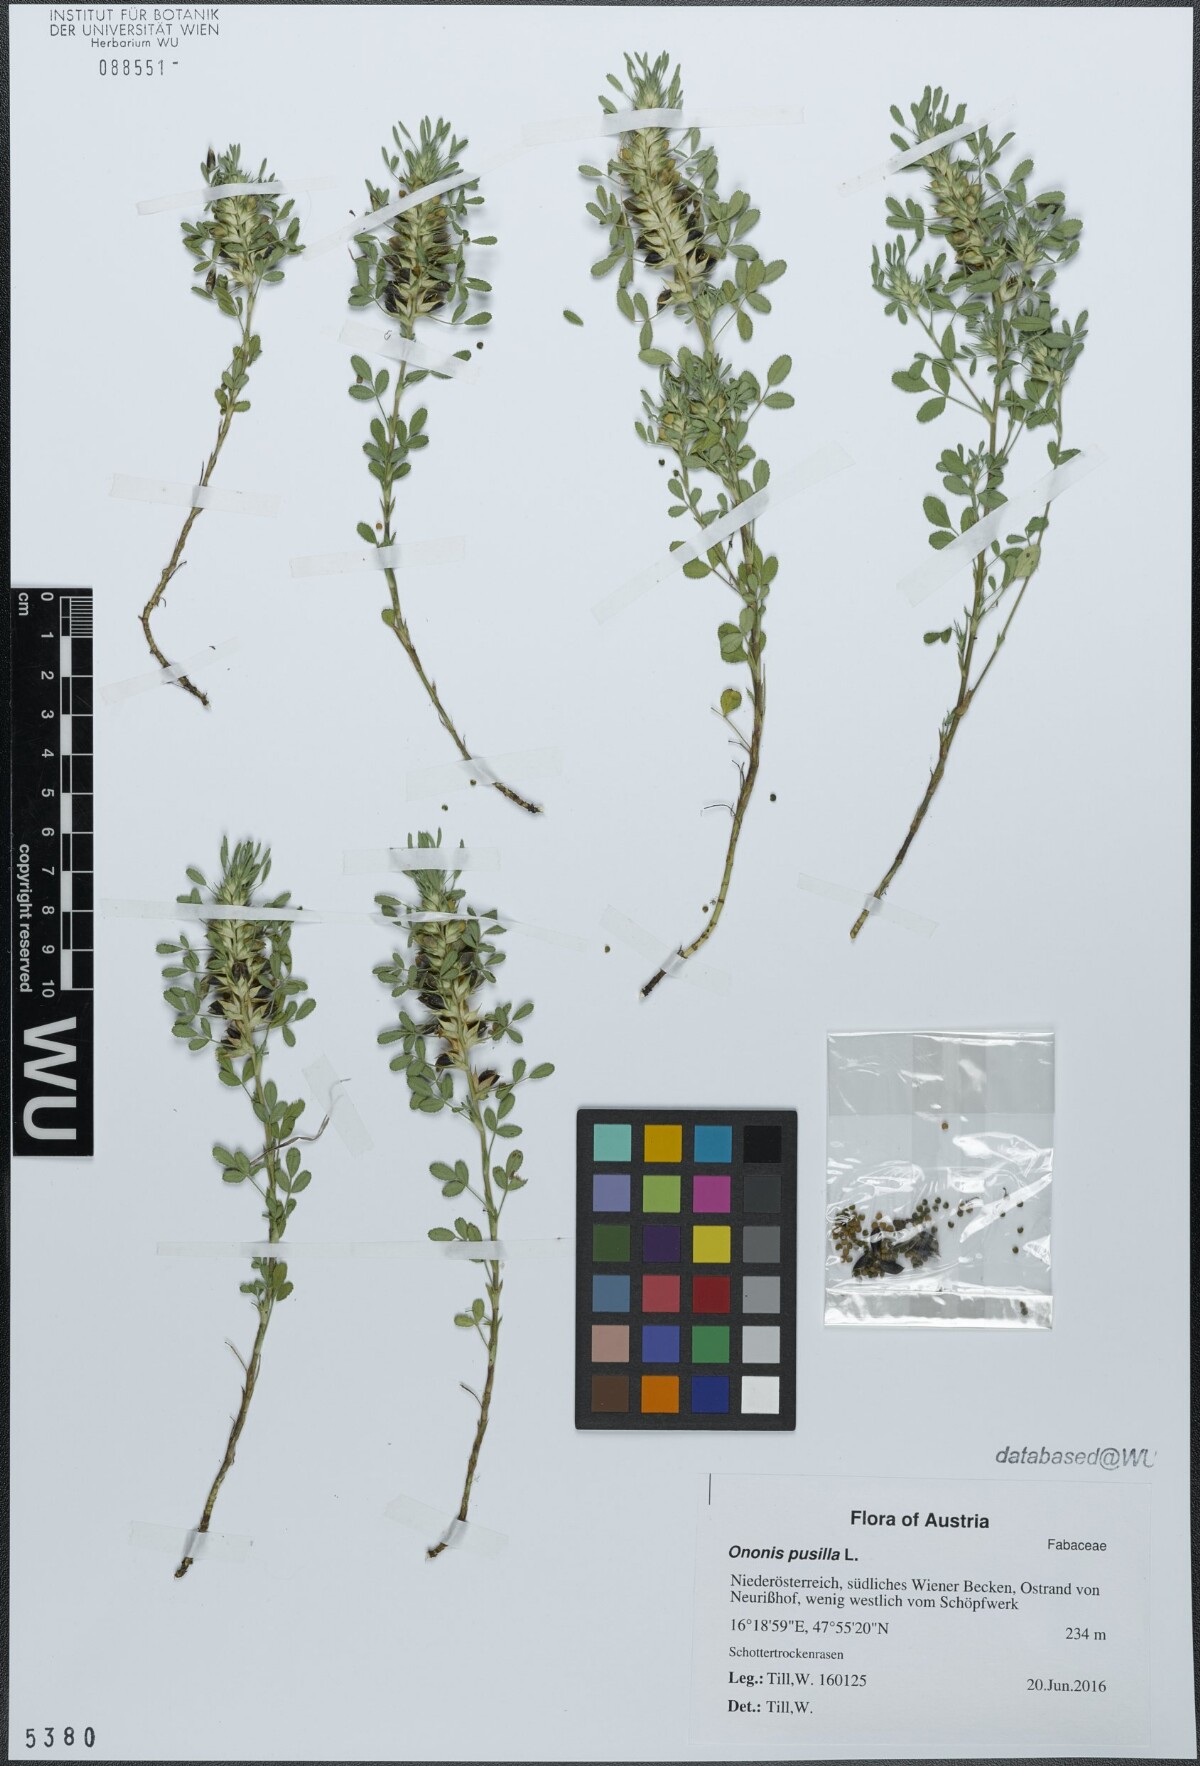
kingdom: Plantae
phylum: Tracheophyta
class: Magnoliopsida
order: Fabales
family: Fabaceae
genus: Ononis
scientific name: Ononis pusilla
